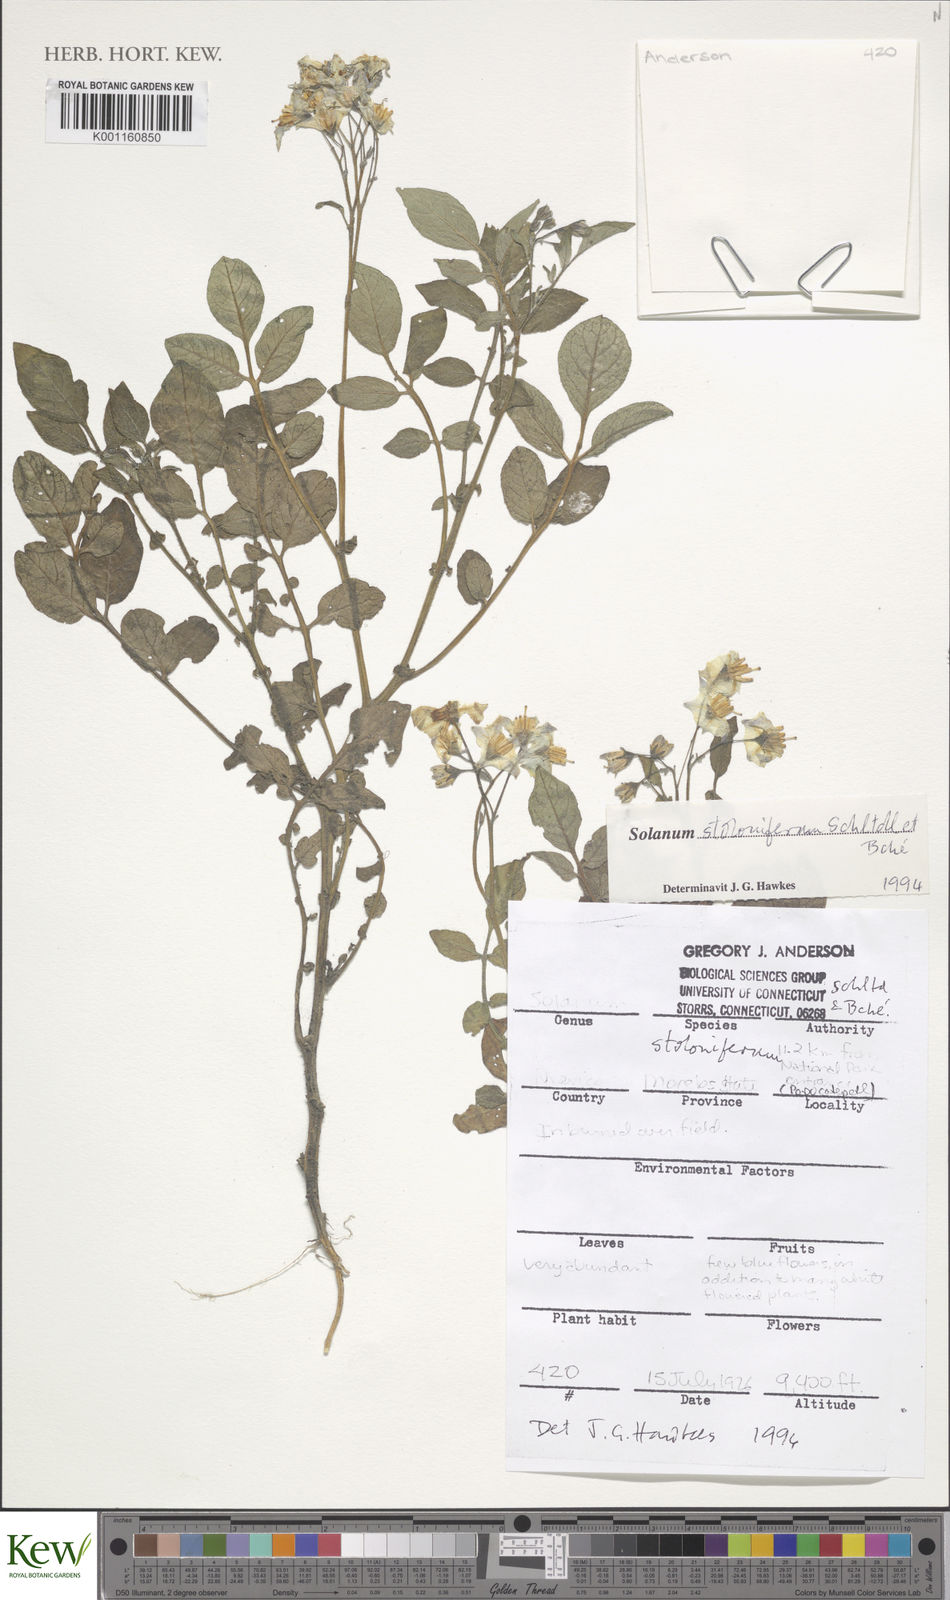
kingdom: Plantae
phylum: Tracheophyta
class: Magnoliopsida
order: Solanales
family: Solanaceae
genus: Solanum
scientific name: Solanum stoloniferum
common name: Fendler's nighshade
